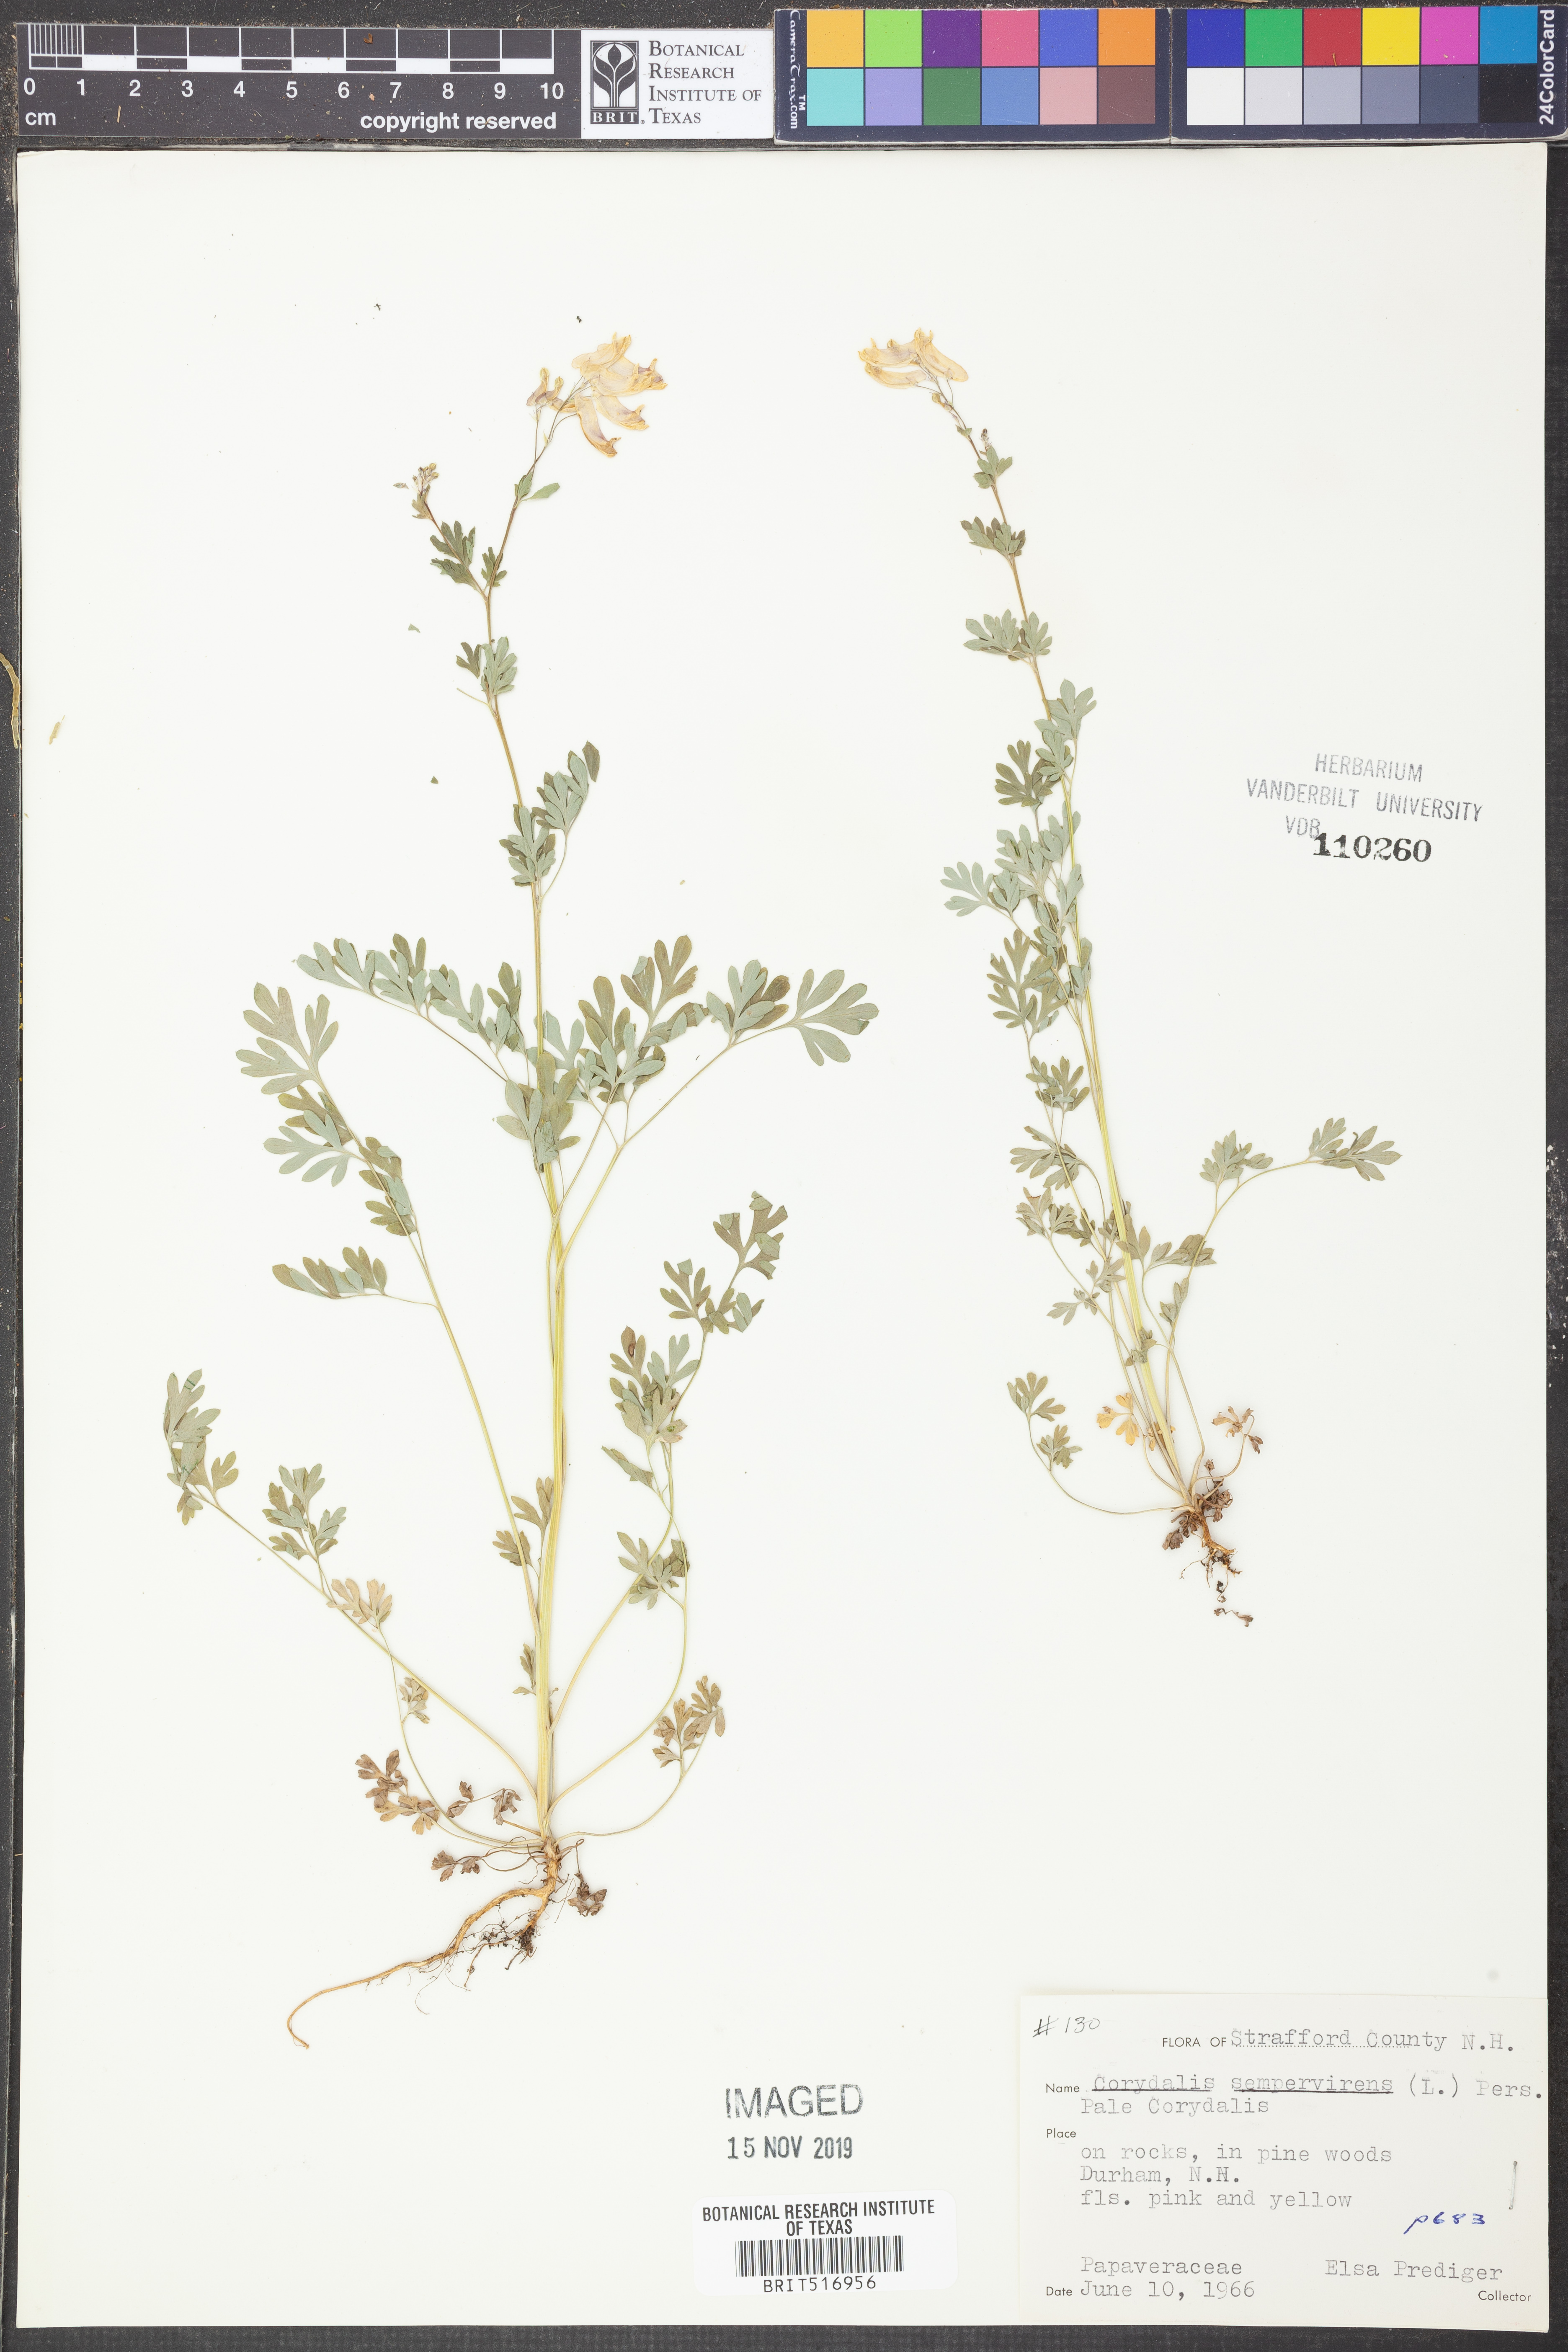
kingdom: Plantae
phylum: Tracheophyta
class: Magnoliopsida
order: Ranunculales
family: Papaveraceae
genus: Capnoides
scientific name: Capnoides sempervirens
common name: Rock harlequin
